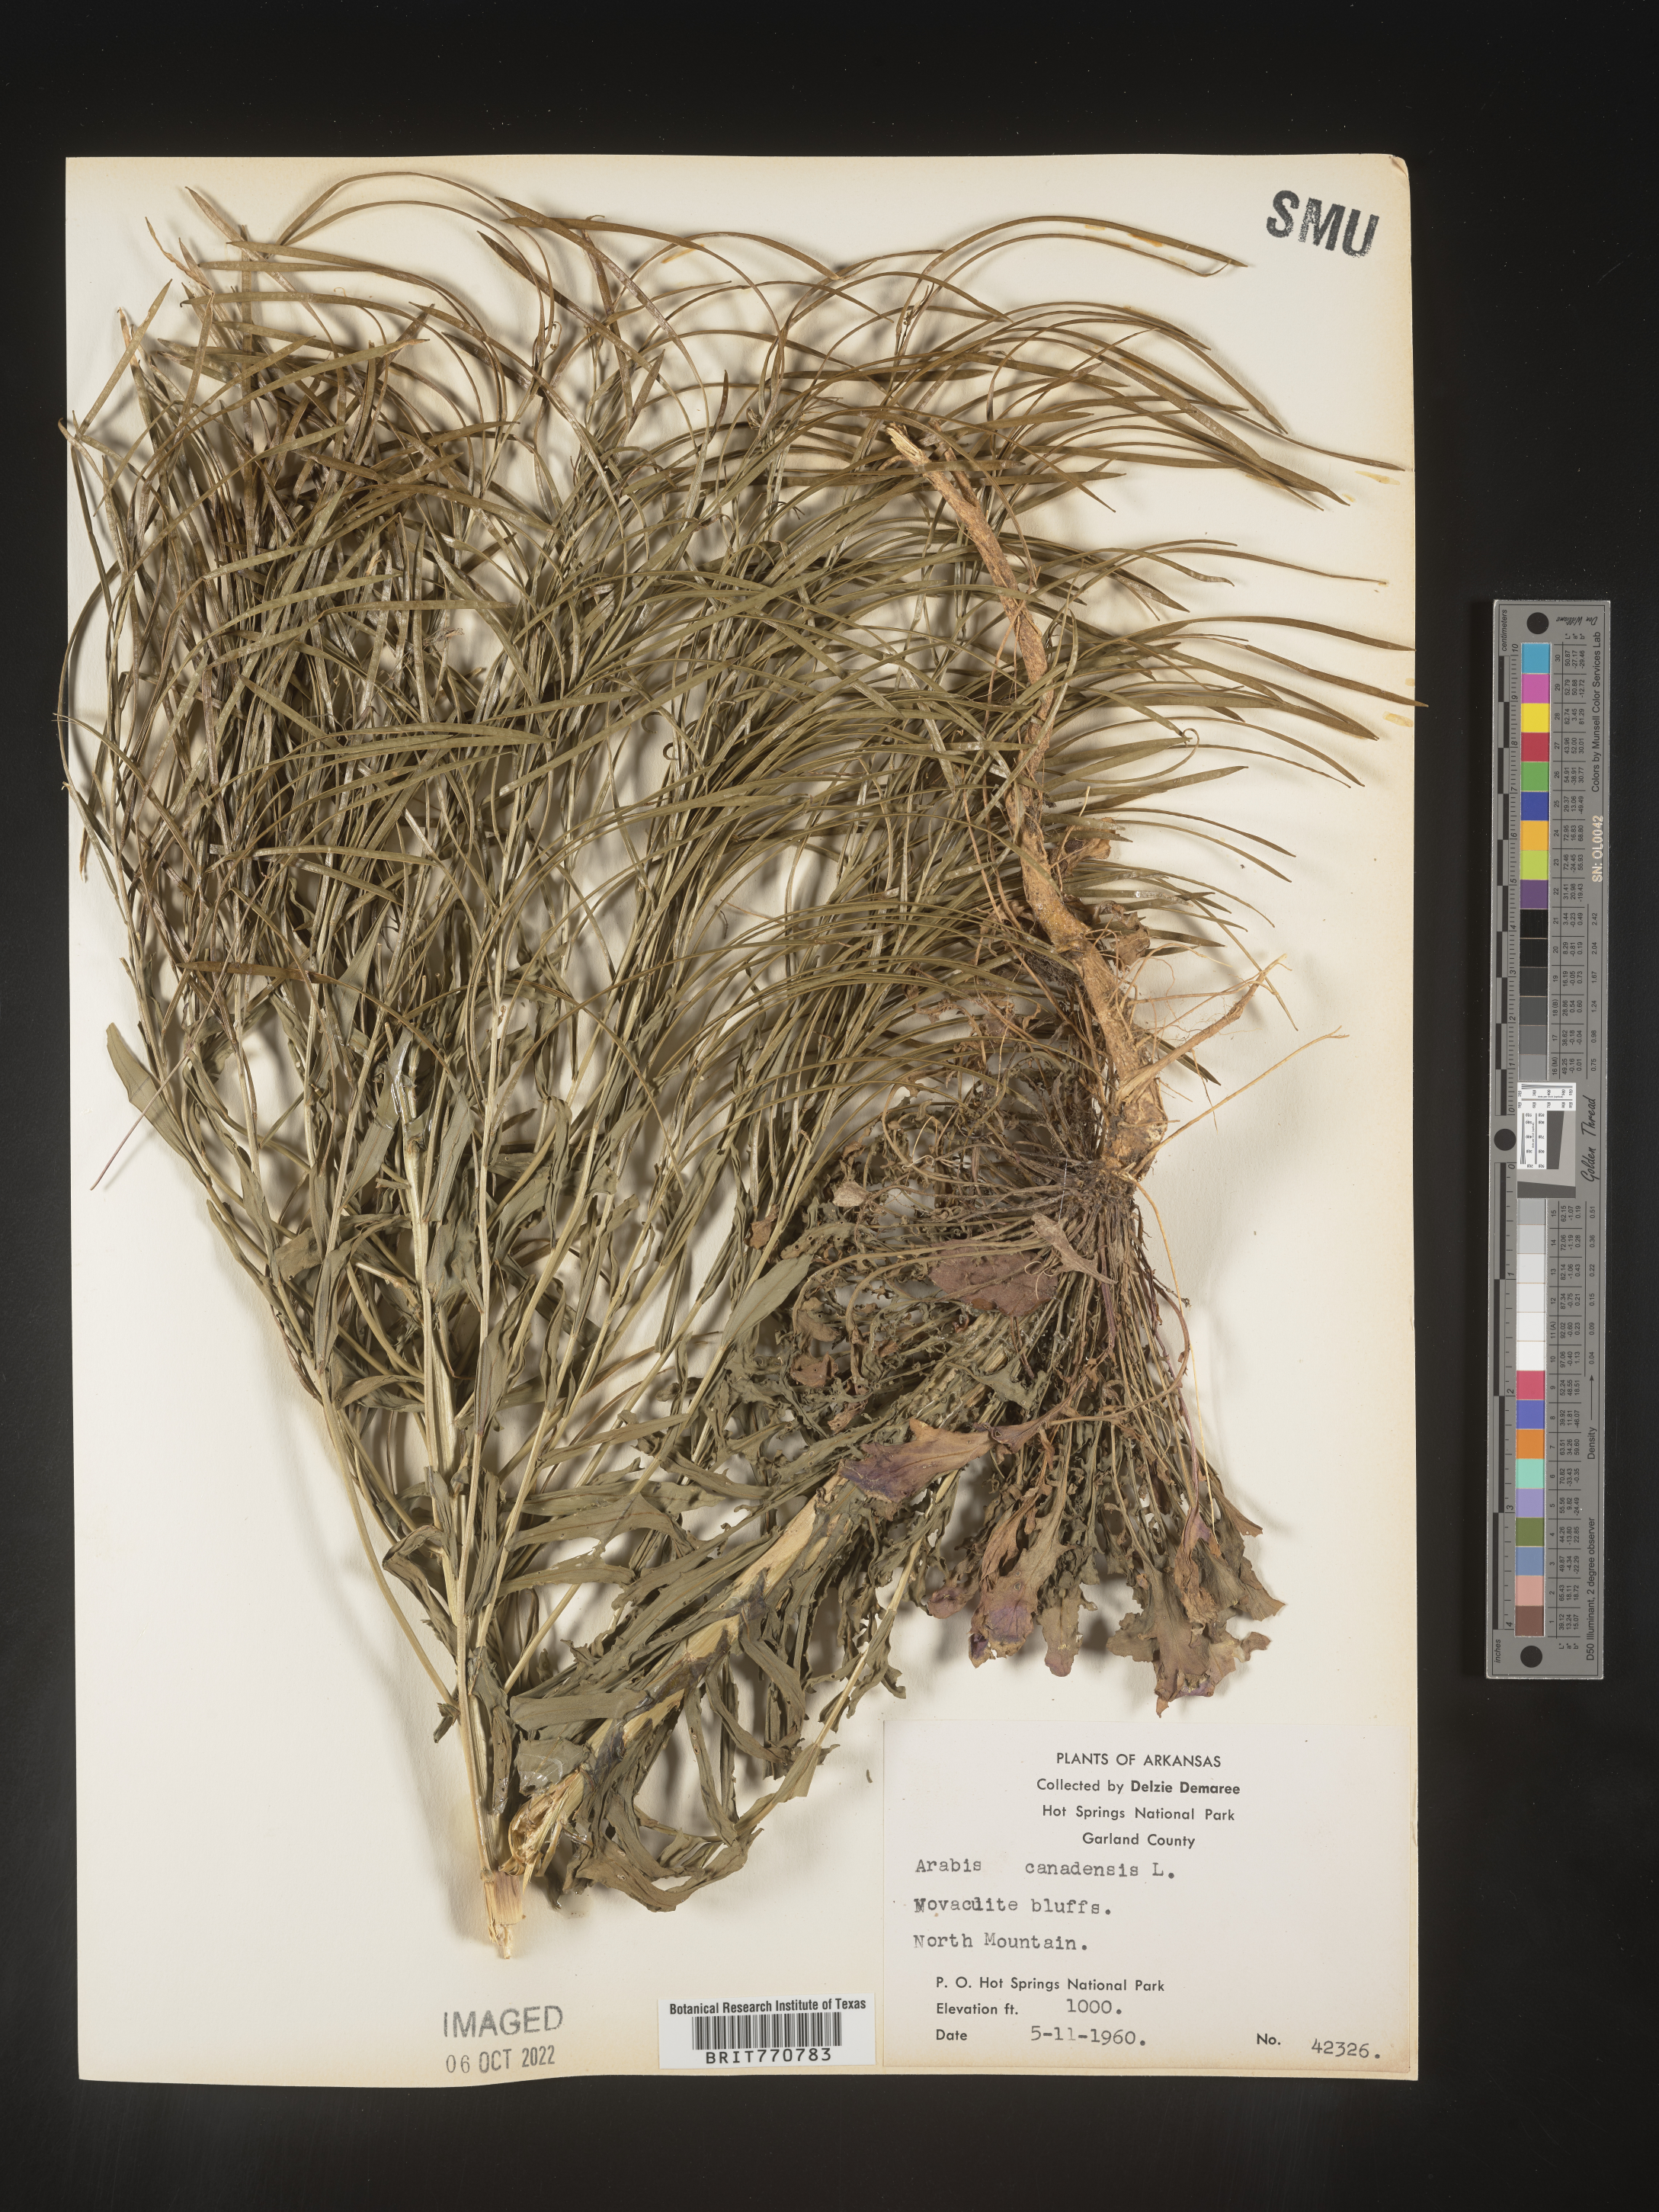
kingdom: Plantae
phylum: Tracheophyta
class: Magnoliopsida
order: Brassicales
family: Brassicaceae
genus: Borodinia
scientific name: Borodinia canadensis
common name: Sicklepod
